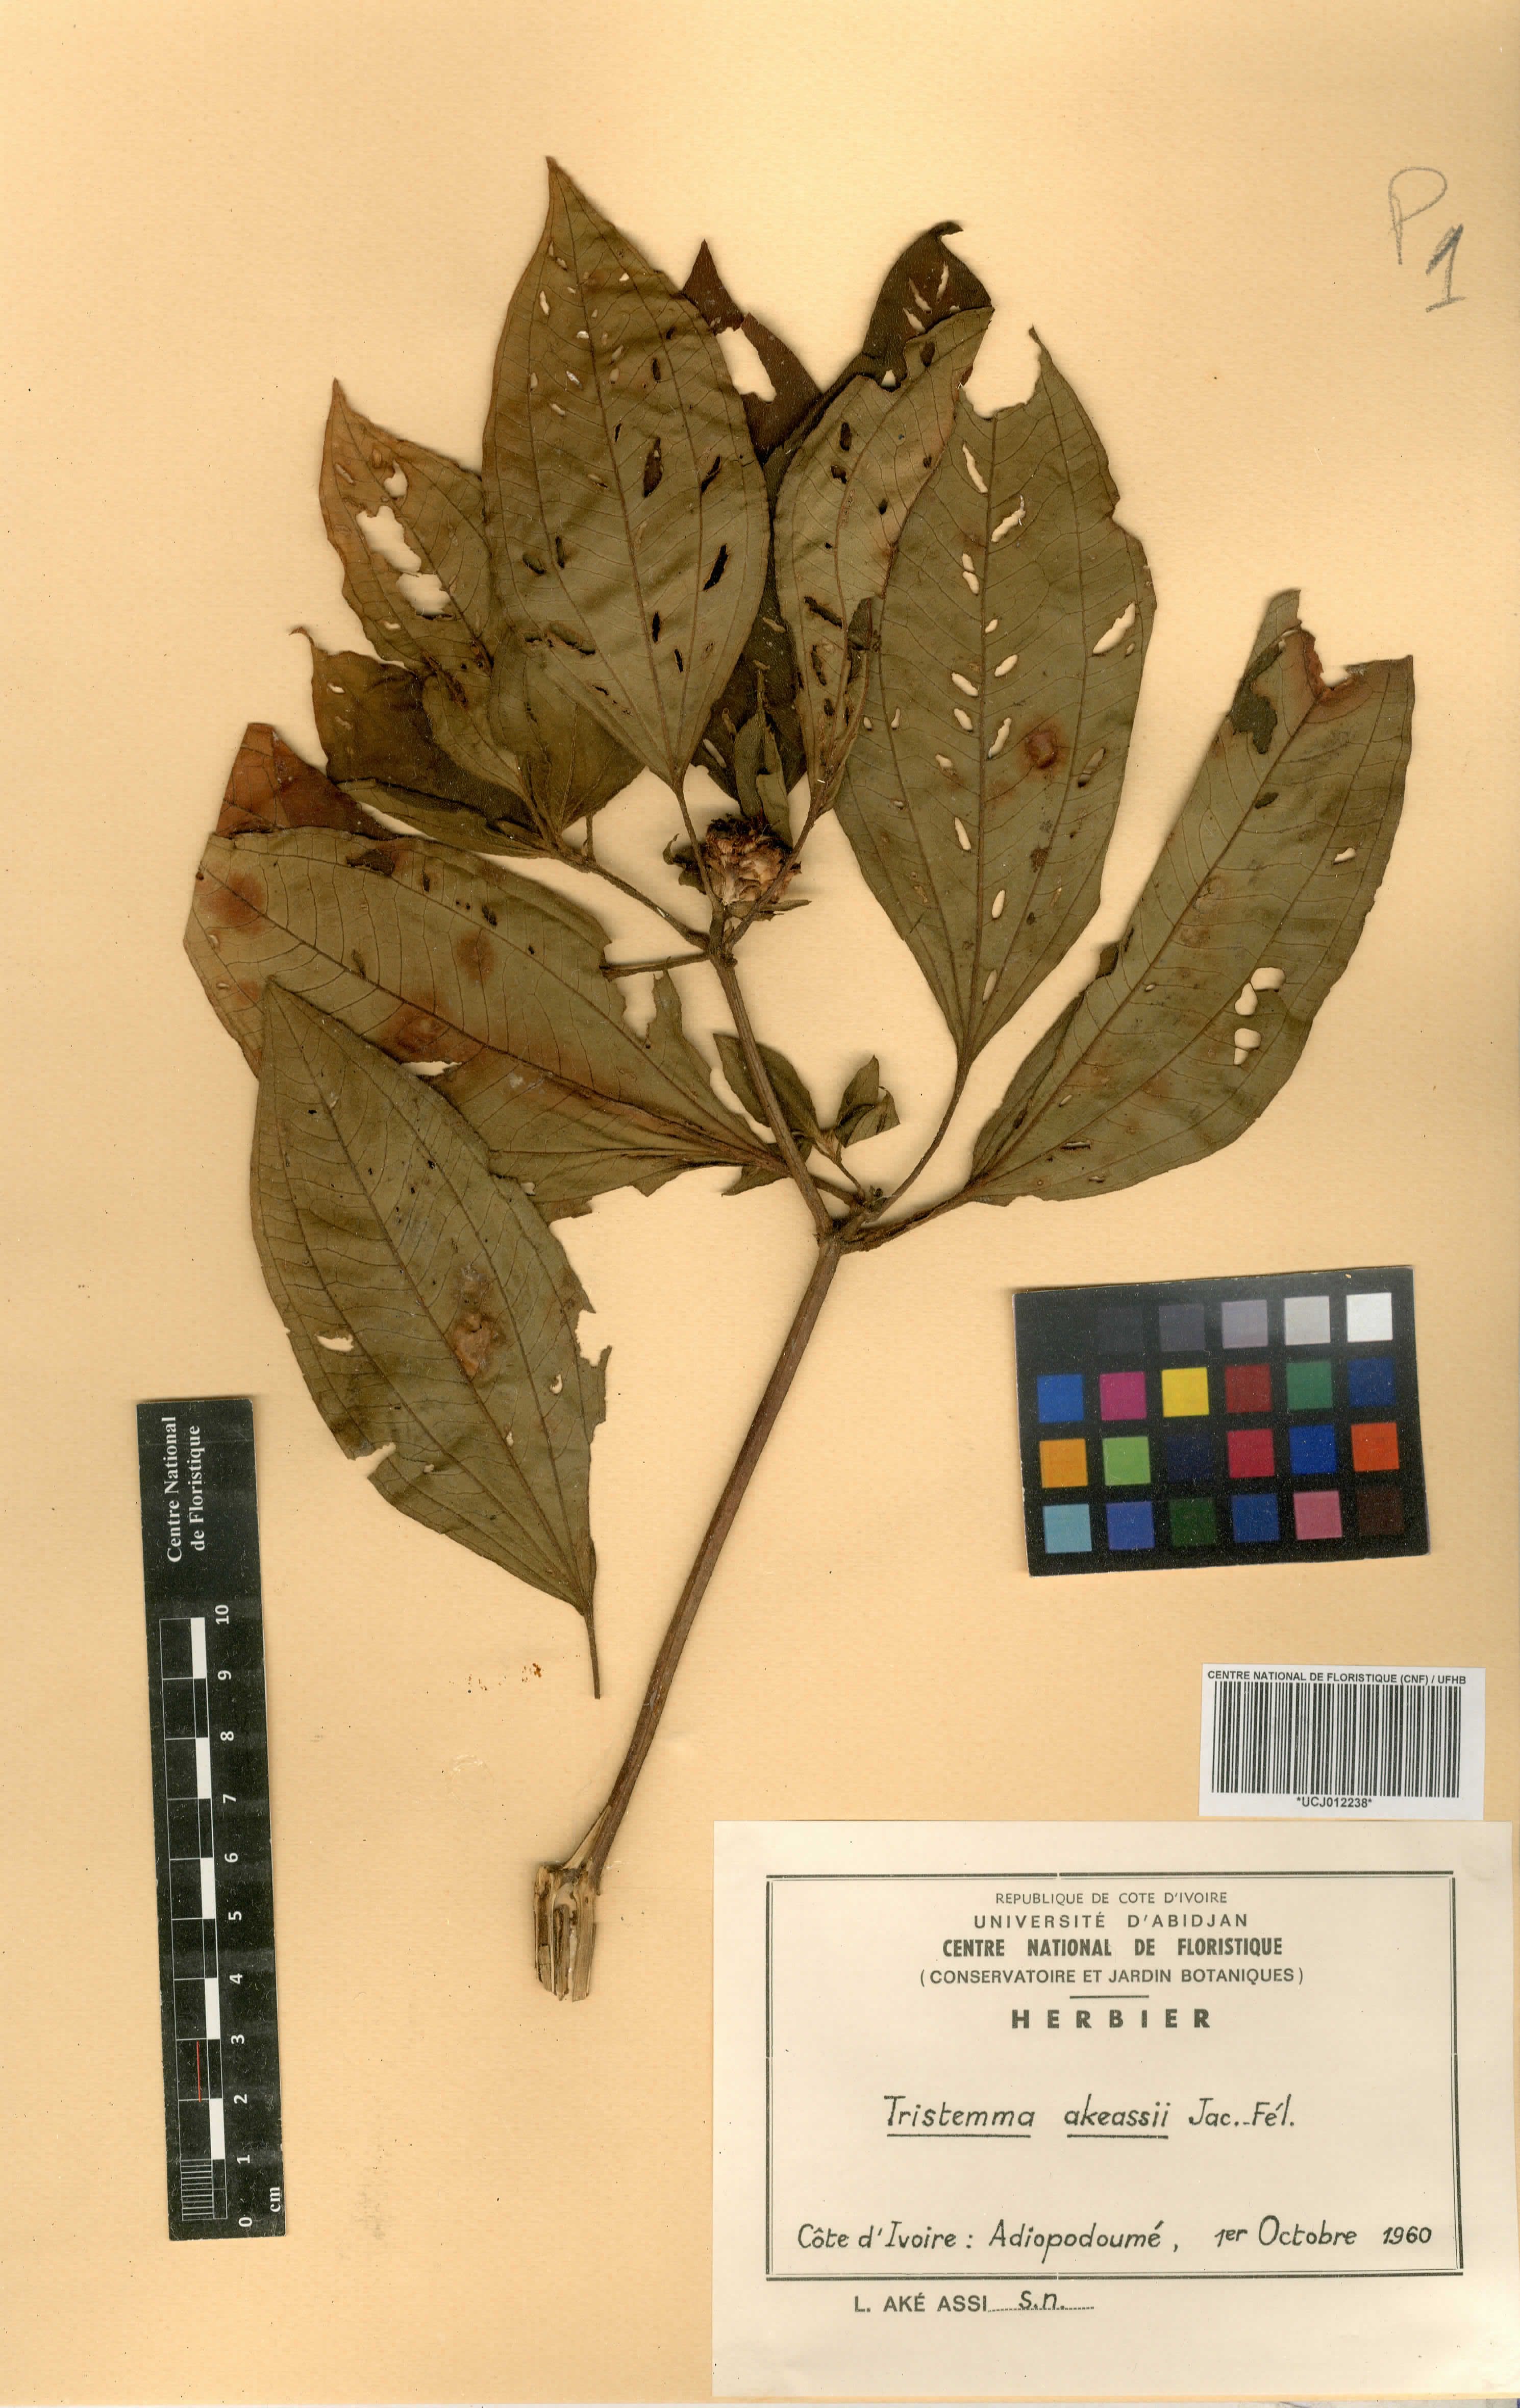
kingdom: Plantae
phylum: Tracheophyta
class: Magnoliopsida
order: Myrtales
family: Melastomataceae
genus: Tristemma
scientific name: Tristemma akeassii
